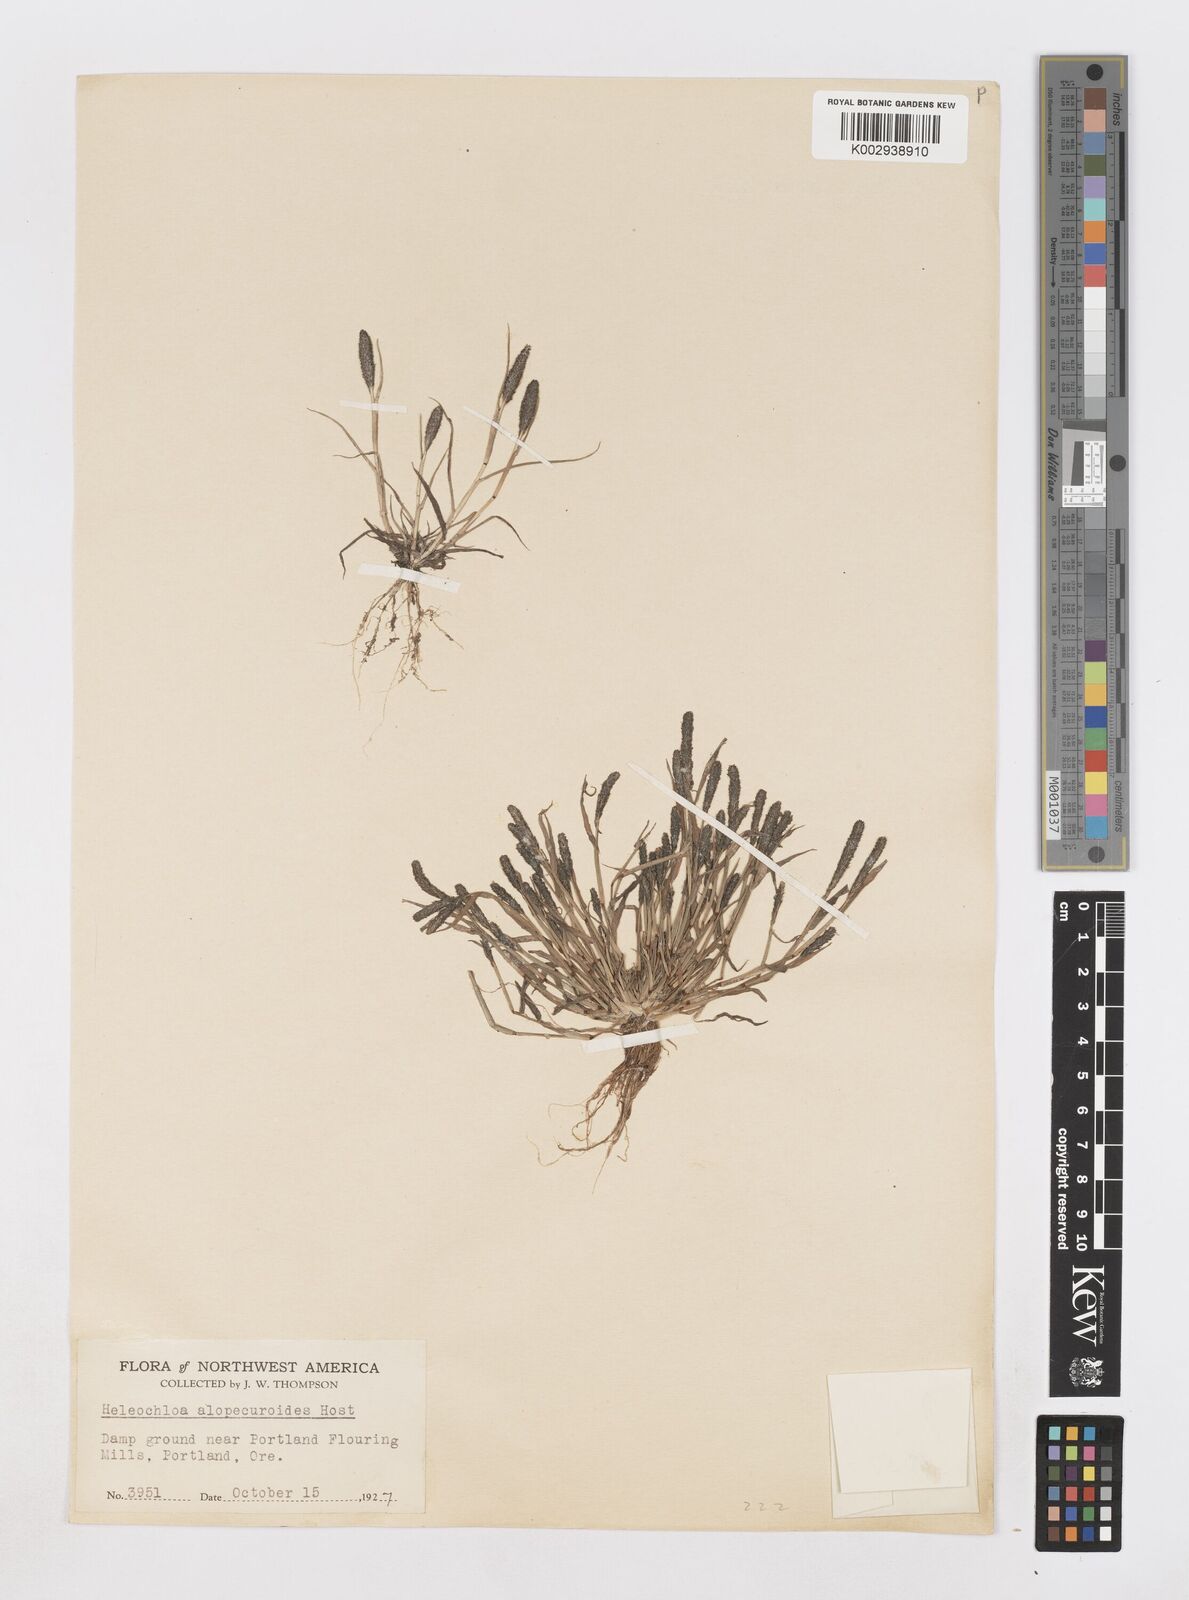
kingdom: Animalia
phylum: Arthropoda
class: Insecta
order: Coleoptera
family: Tenebrionidae
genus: Crypsis
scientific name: Crypsis
